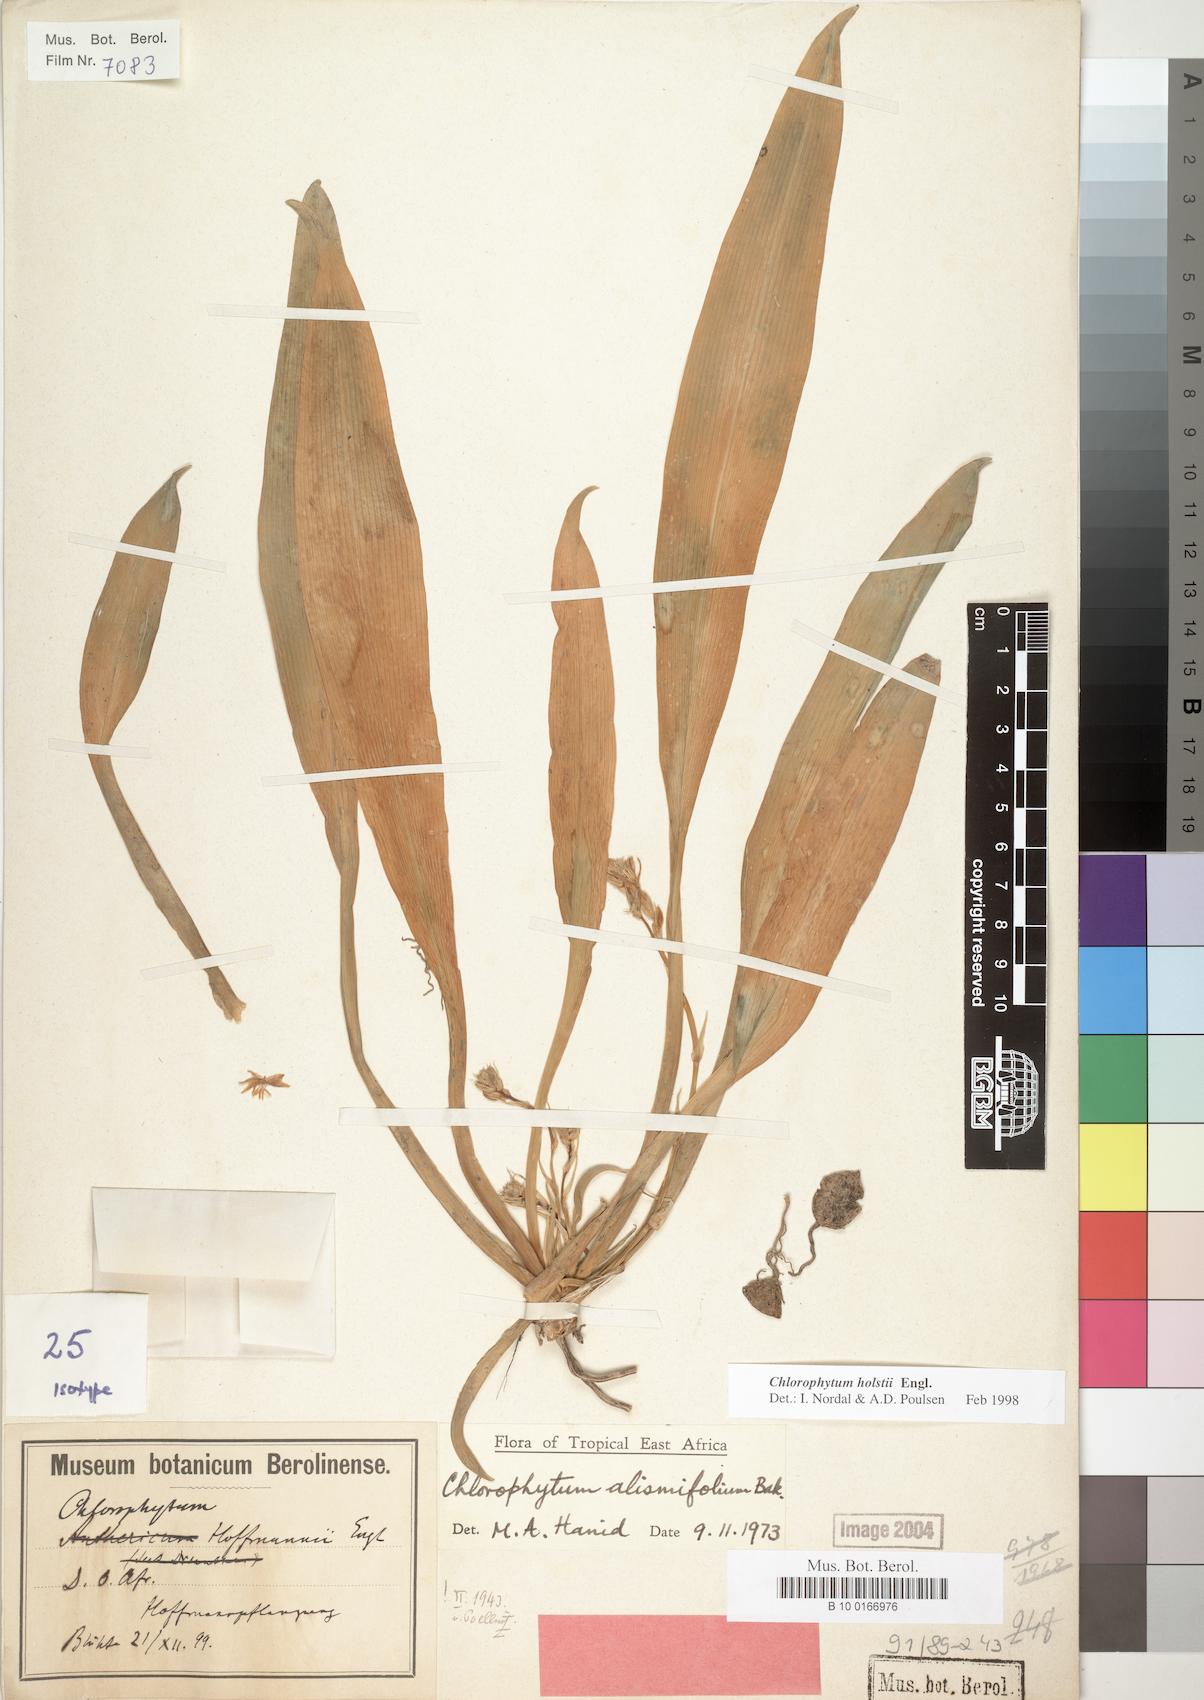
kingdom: Plantae
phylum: Tracheophyta
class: Liliopsida
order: Asparagales
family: Asparagaceae
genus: Chlorophytum
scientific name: Chlorophytum holstii
